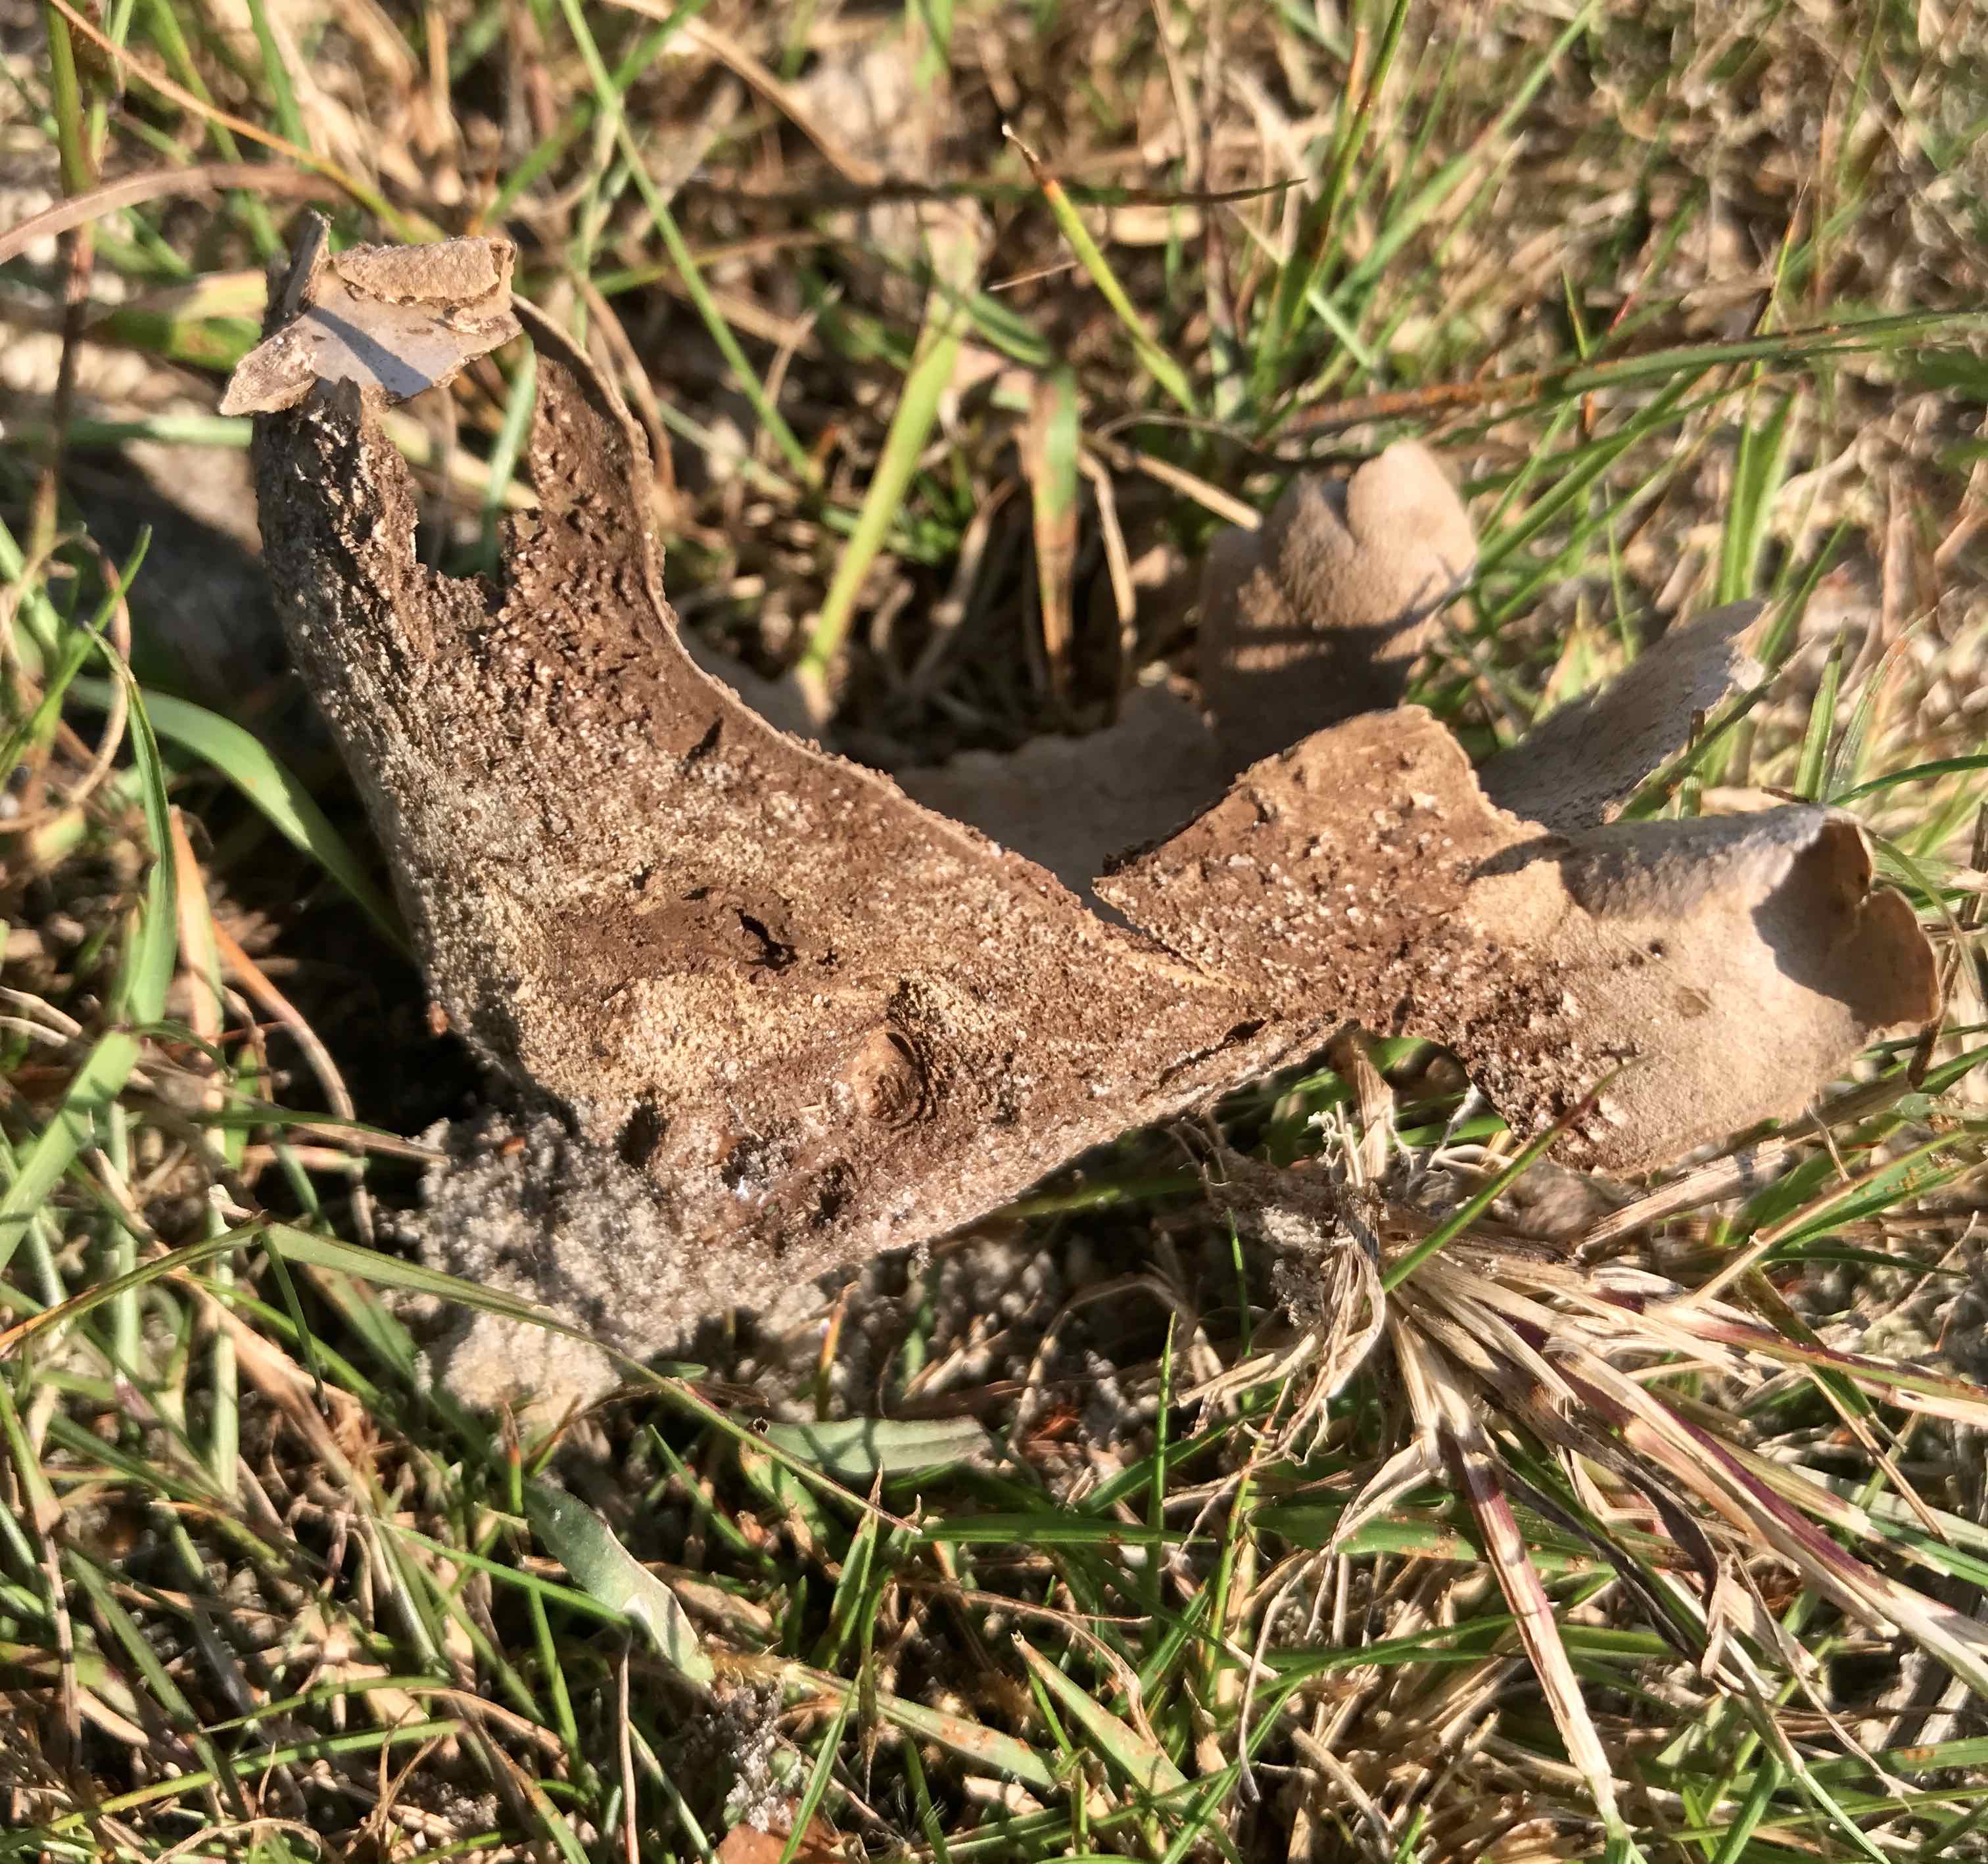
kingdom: Fungi
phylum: Basidiomycota
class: Agaricomycetes
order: Agaricales
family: Lycoperdaceae
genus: Bovistella
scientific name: Bovistella utriformis
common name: skællet støvbold
